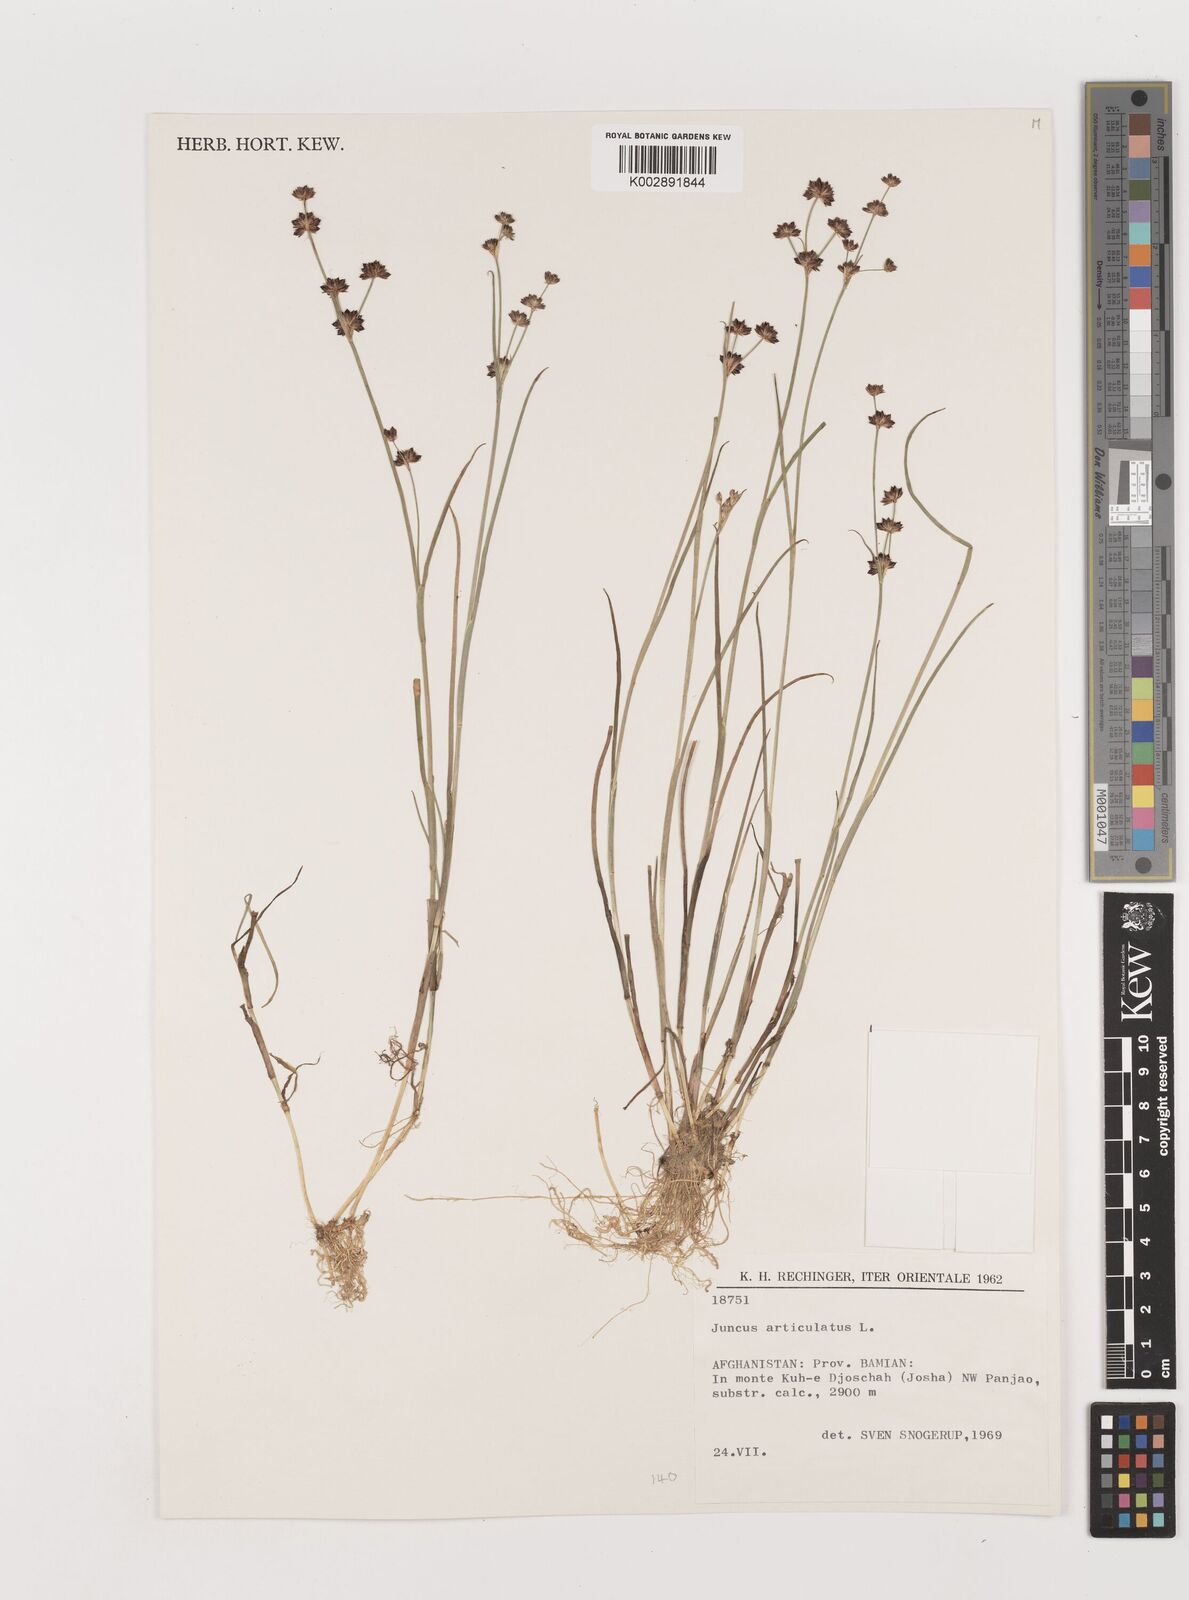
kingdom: Plantae
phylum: Tracheophyta
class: Liliopsida
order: Poales
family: Juncaceae
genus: Juncus
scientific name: Juncus articulatus
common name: Jointed rush
